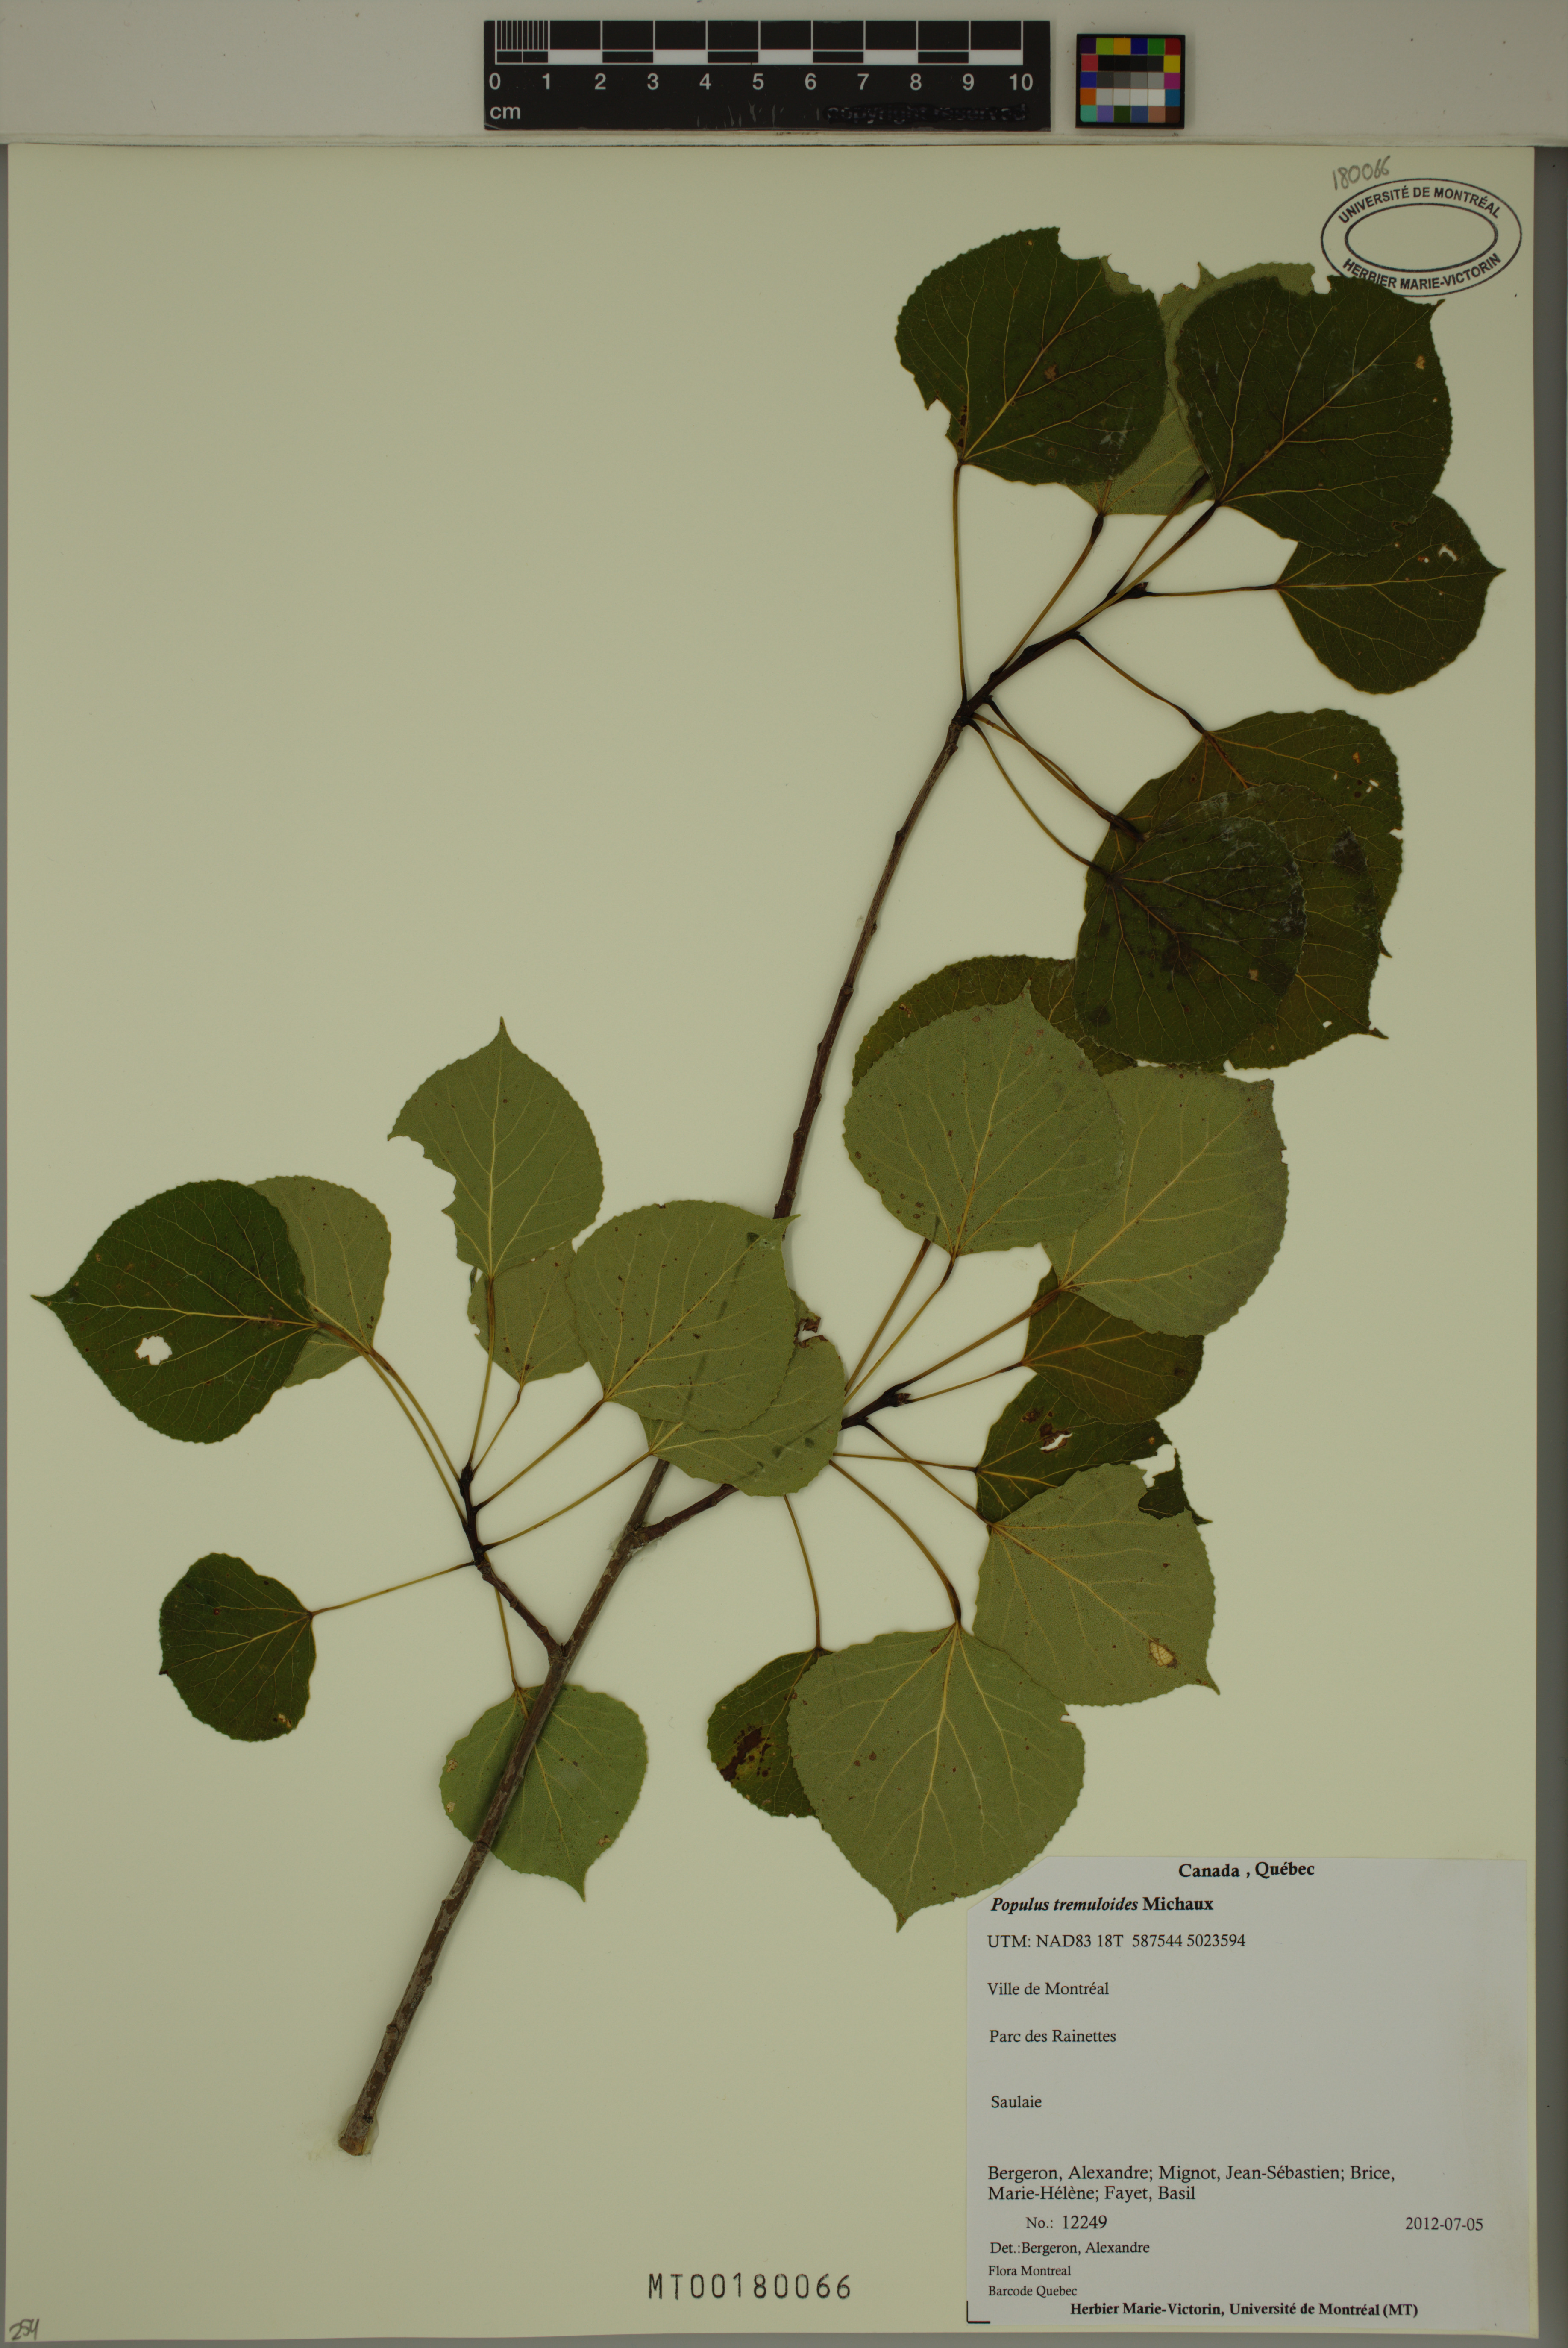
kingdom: Plantae
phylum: Tracheophyta
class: Magnoliopsida
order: Malpighiales
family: Salicaceae
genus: Populus
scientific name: Populus tremuloides
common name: Quaking aspen
